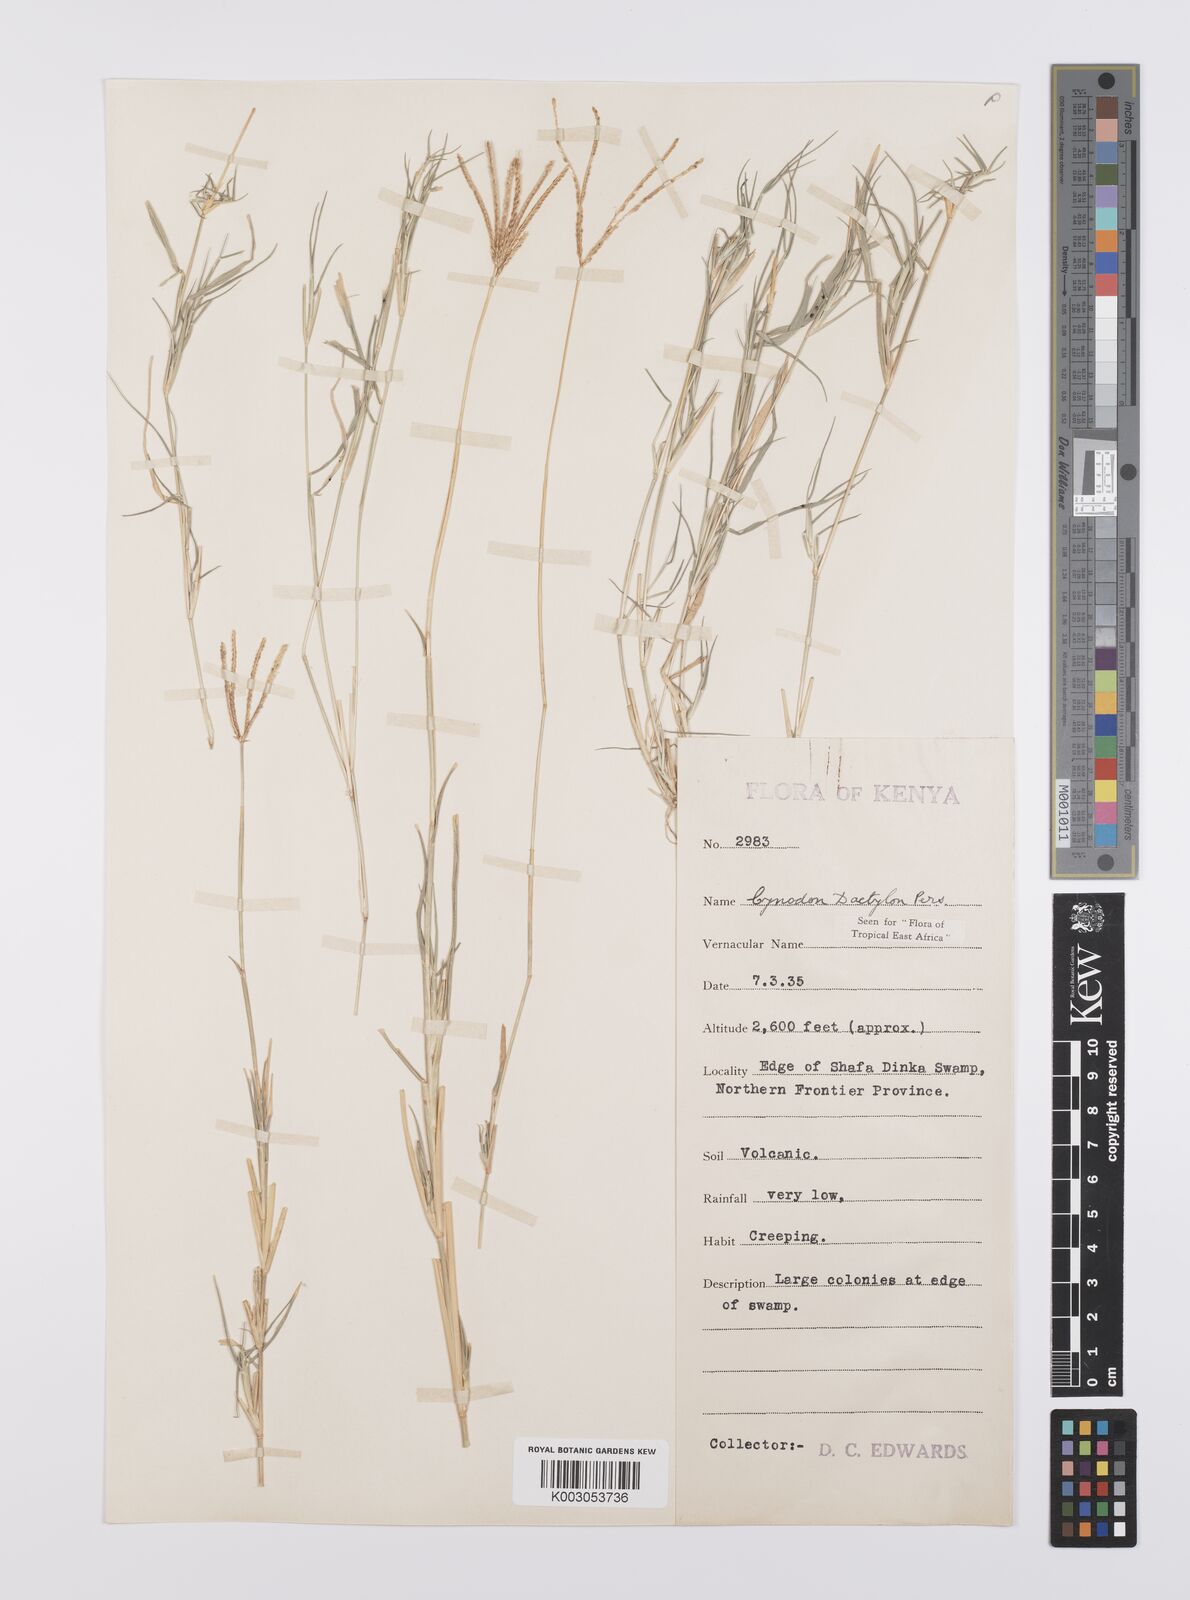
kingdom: Plantae
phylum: Tracheophyta
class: Liliopsida
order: Poales
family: Poaceae
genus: Cynodon
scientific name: Cynodon dactylon
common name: Bermuda grass
